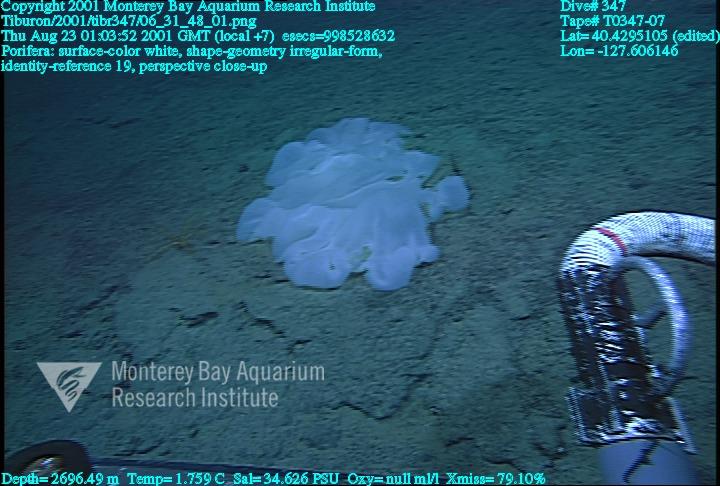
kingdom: Animalia
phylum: Porifera
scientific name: Porifera
